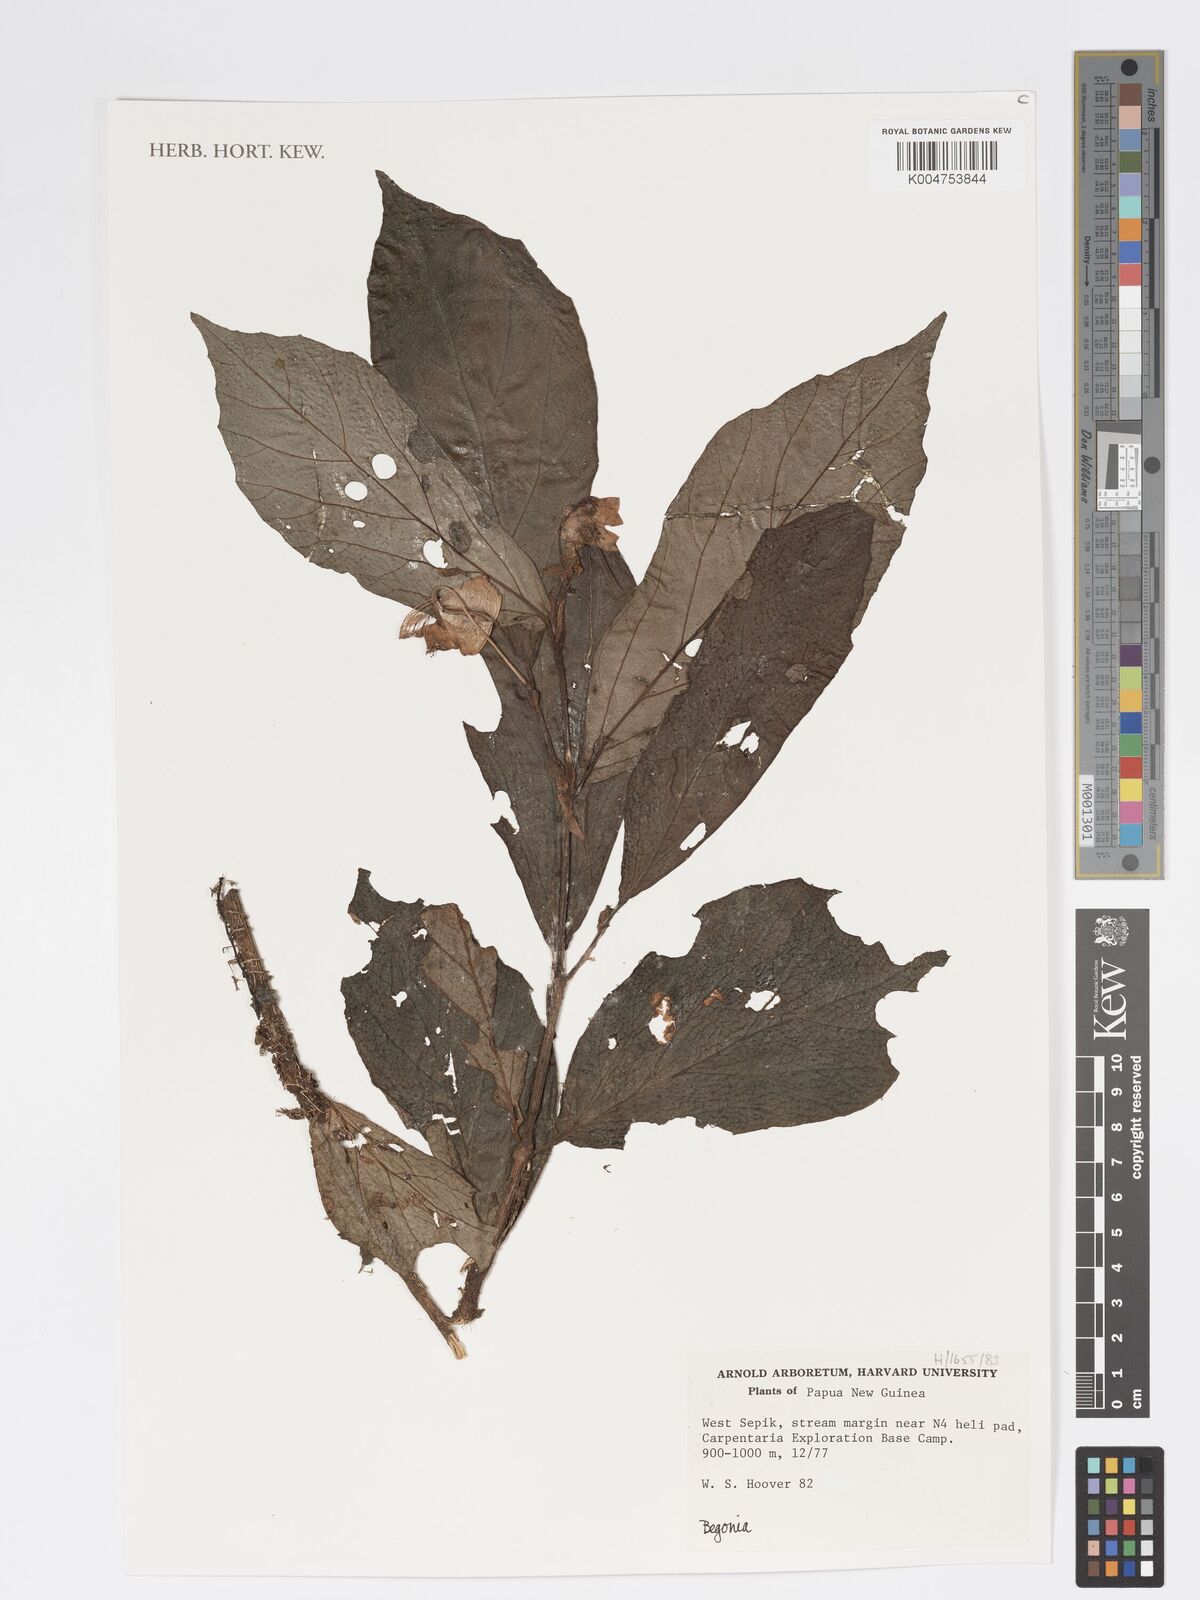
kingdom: Plantae
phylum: Tracheophyta
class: Magnoliopsida
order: Cucurbitales
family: Begoniaceae
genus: Begonia
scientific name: Begonia
